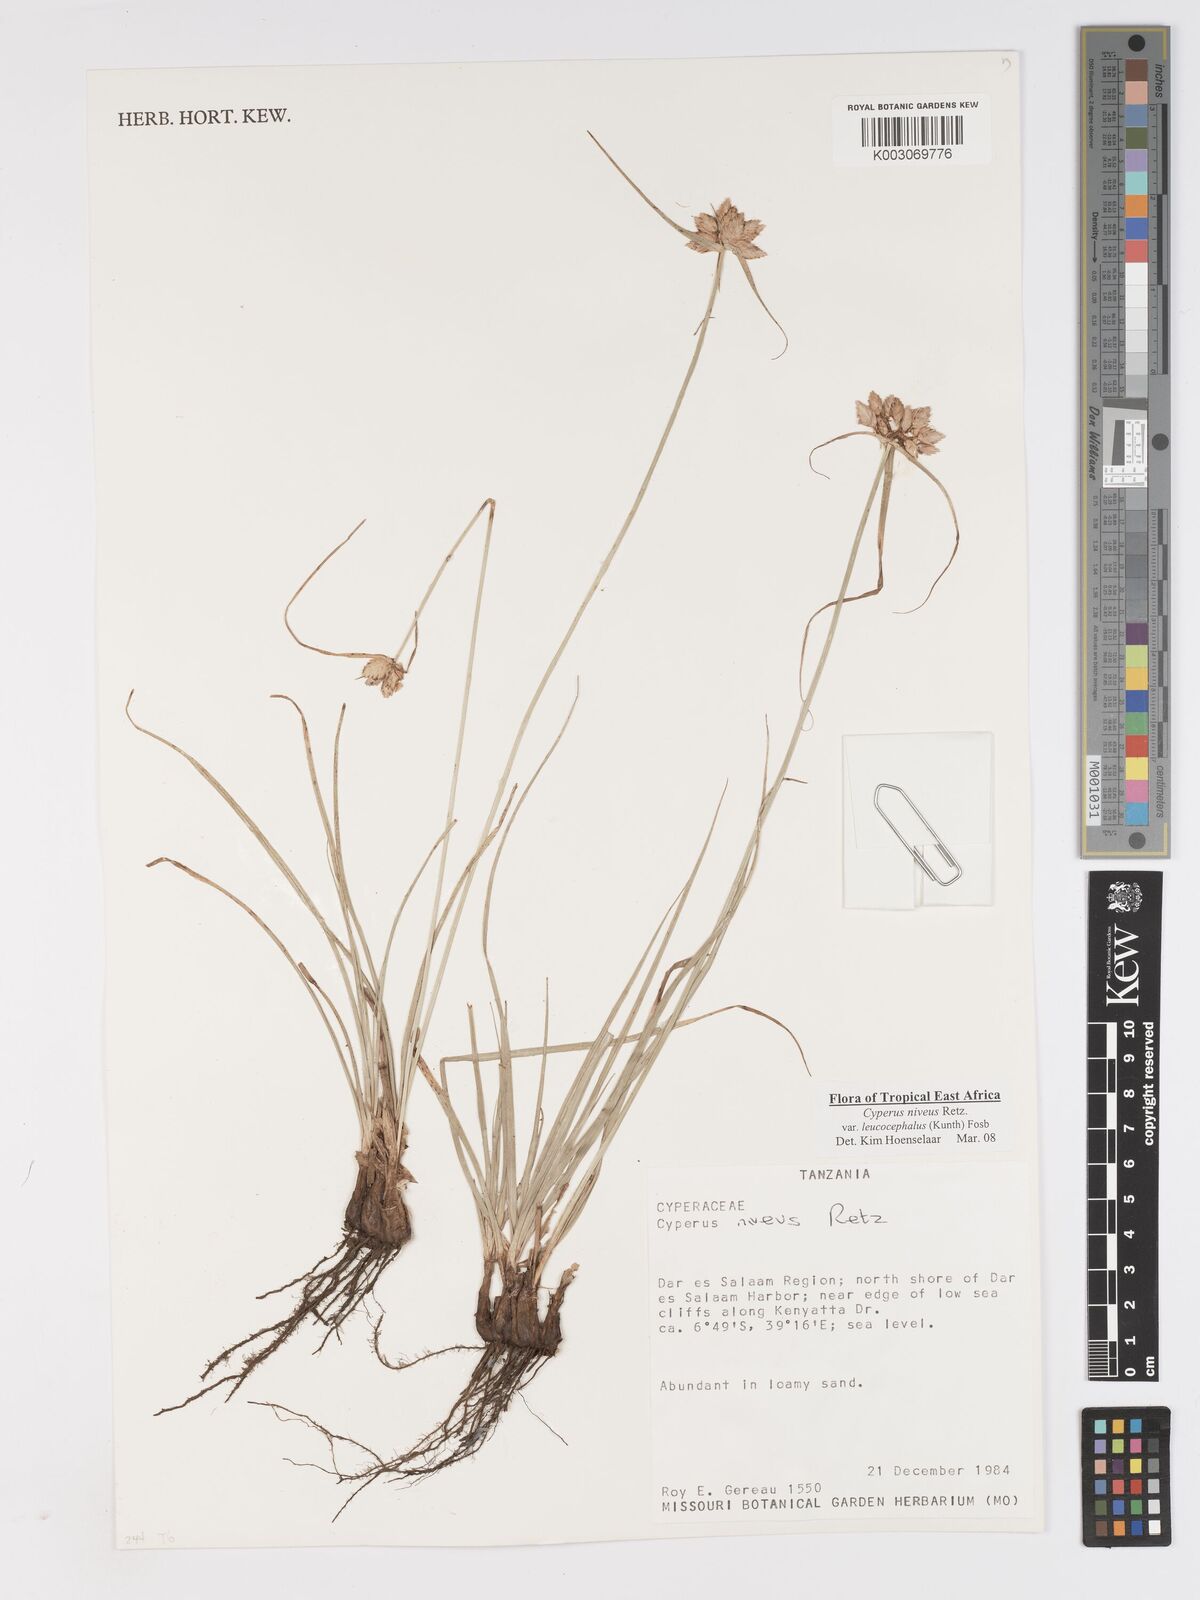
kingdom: Plantae
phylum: Tracheophyta
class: Liliopsida
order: Poales
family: Cyperaceae
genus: Cyperus
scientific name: Cyperus niveus
